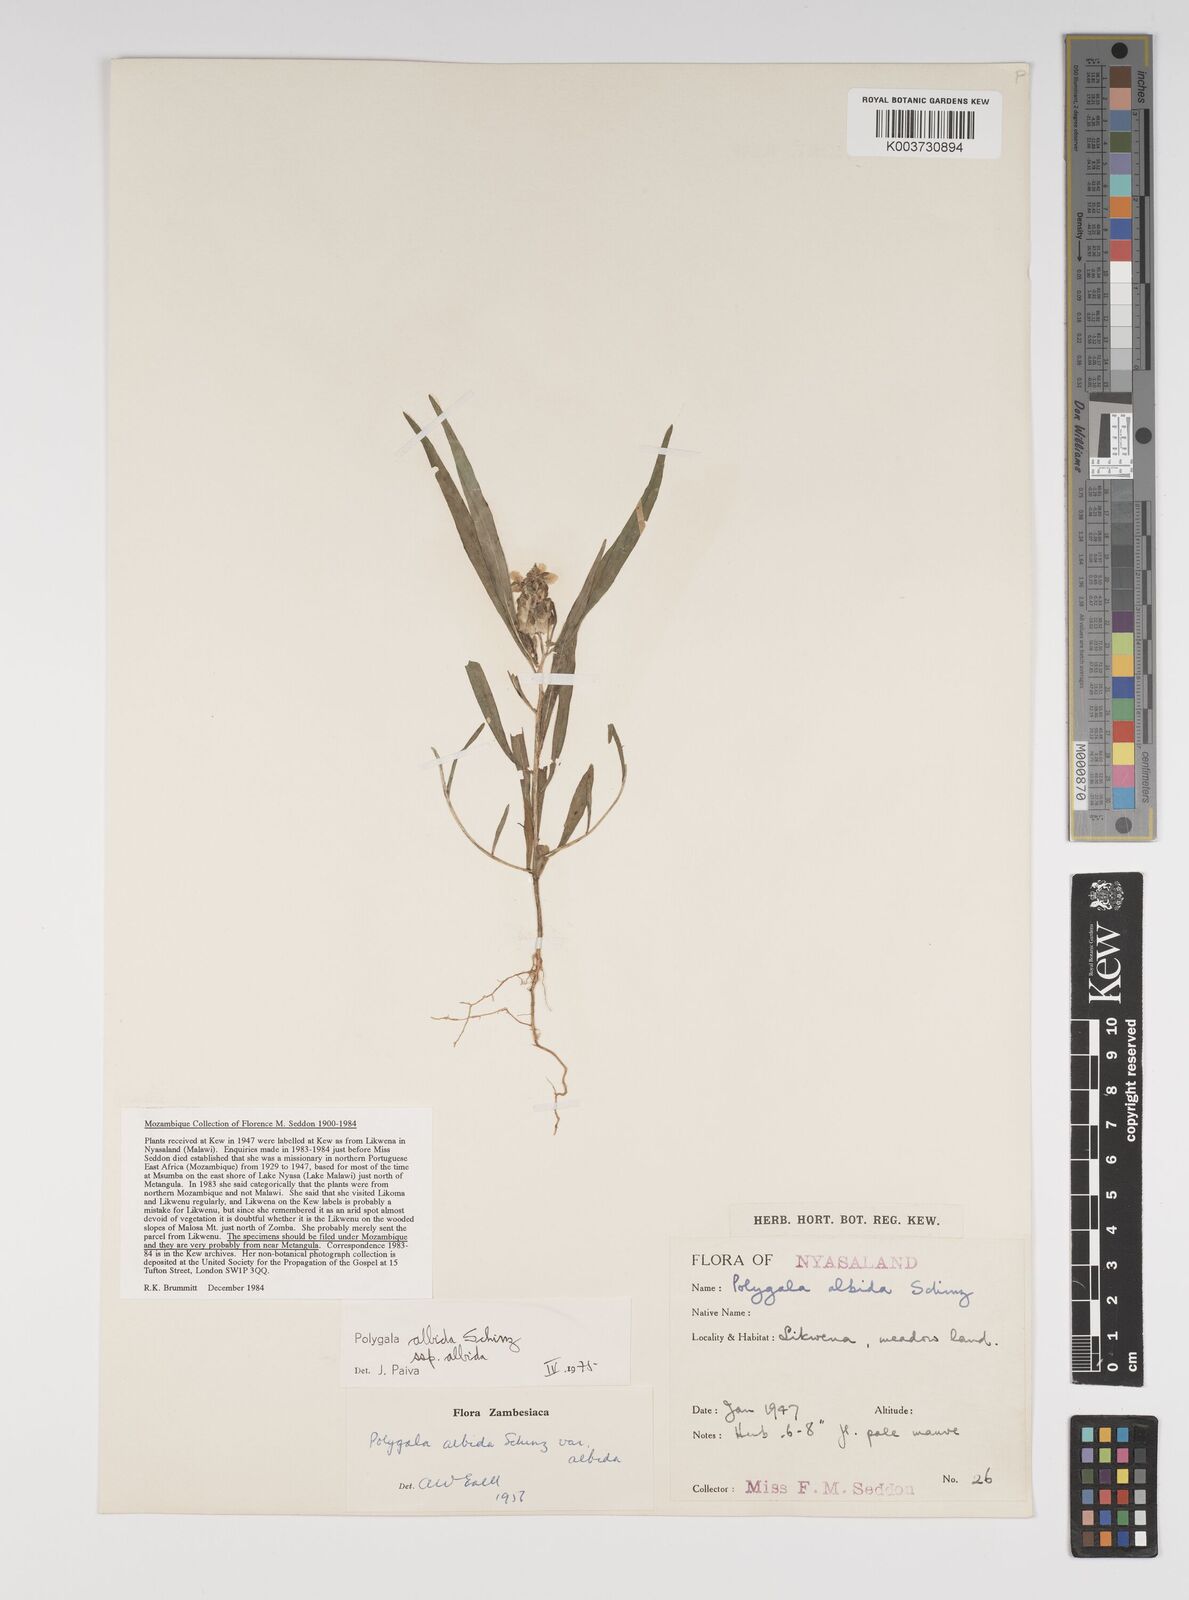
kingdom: Plantae
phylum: Tracheophyta
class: Magnoliopsida
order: Fabales
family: Polygalaceae
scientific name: Polygalaceae
